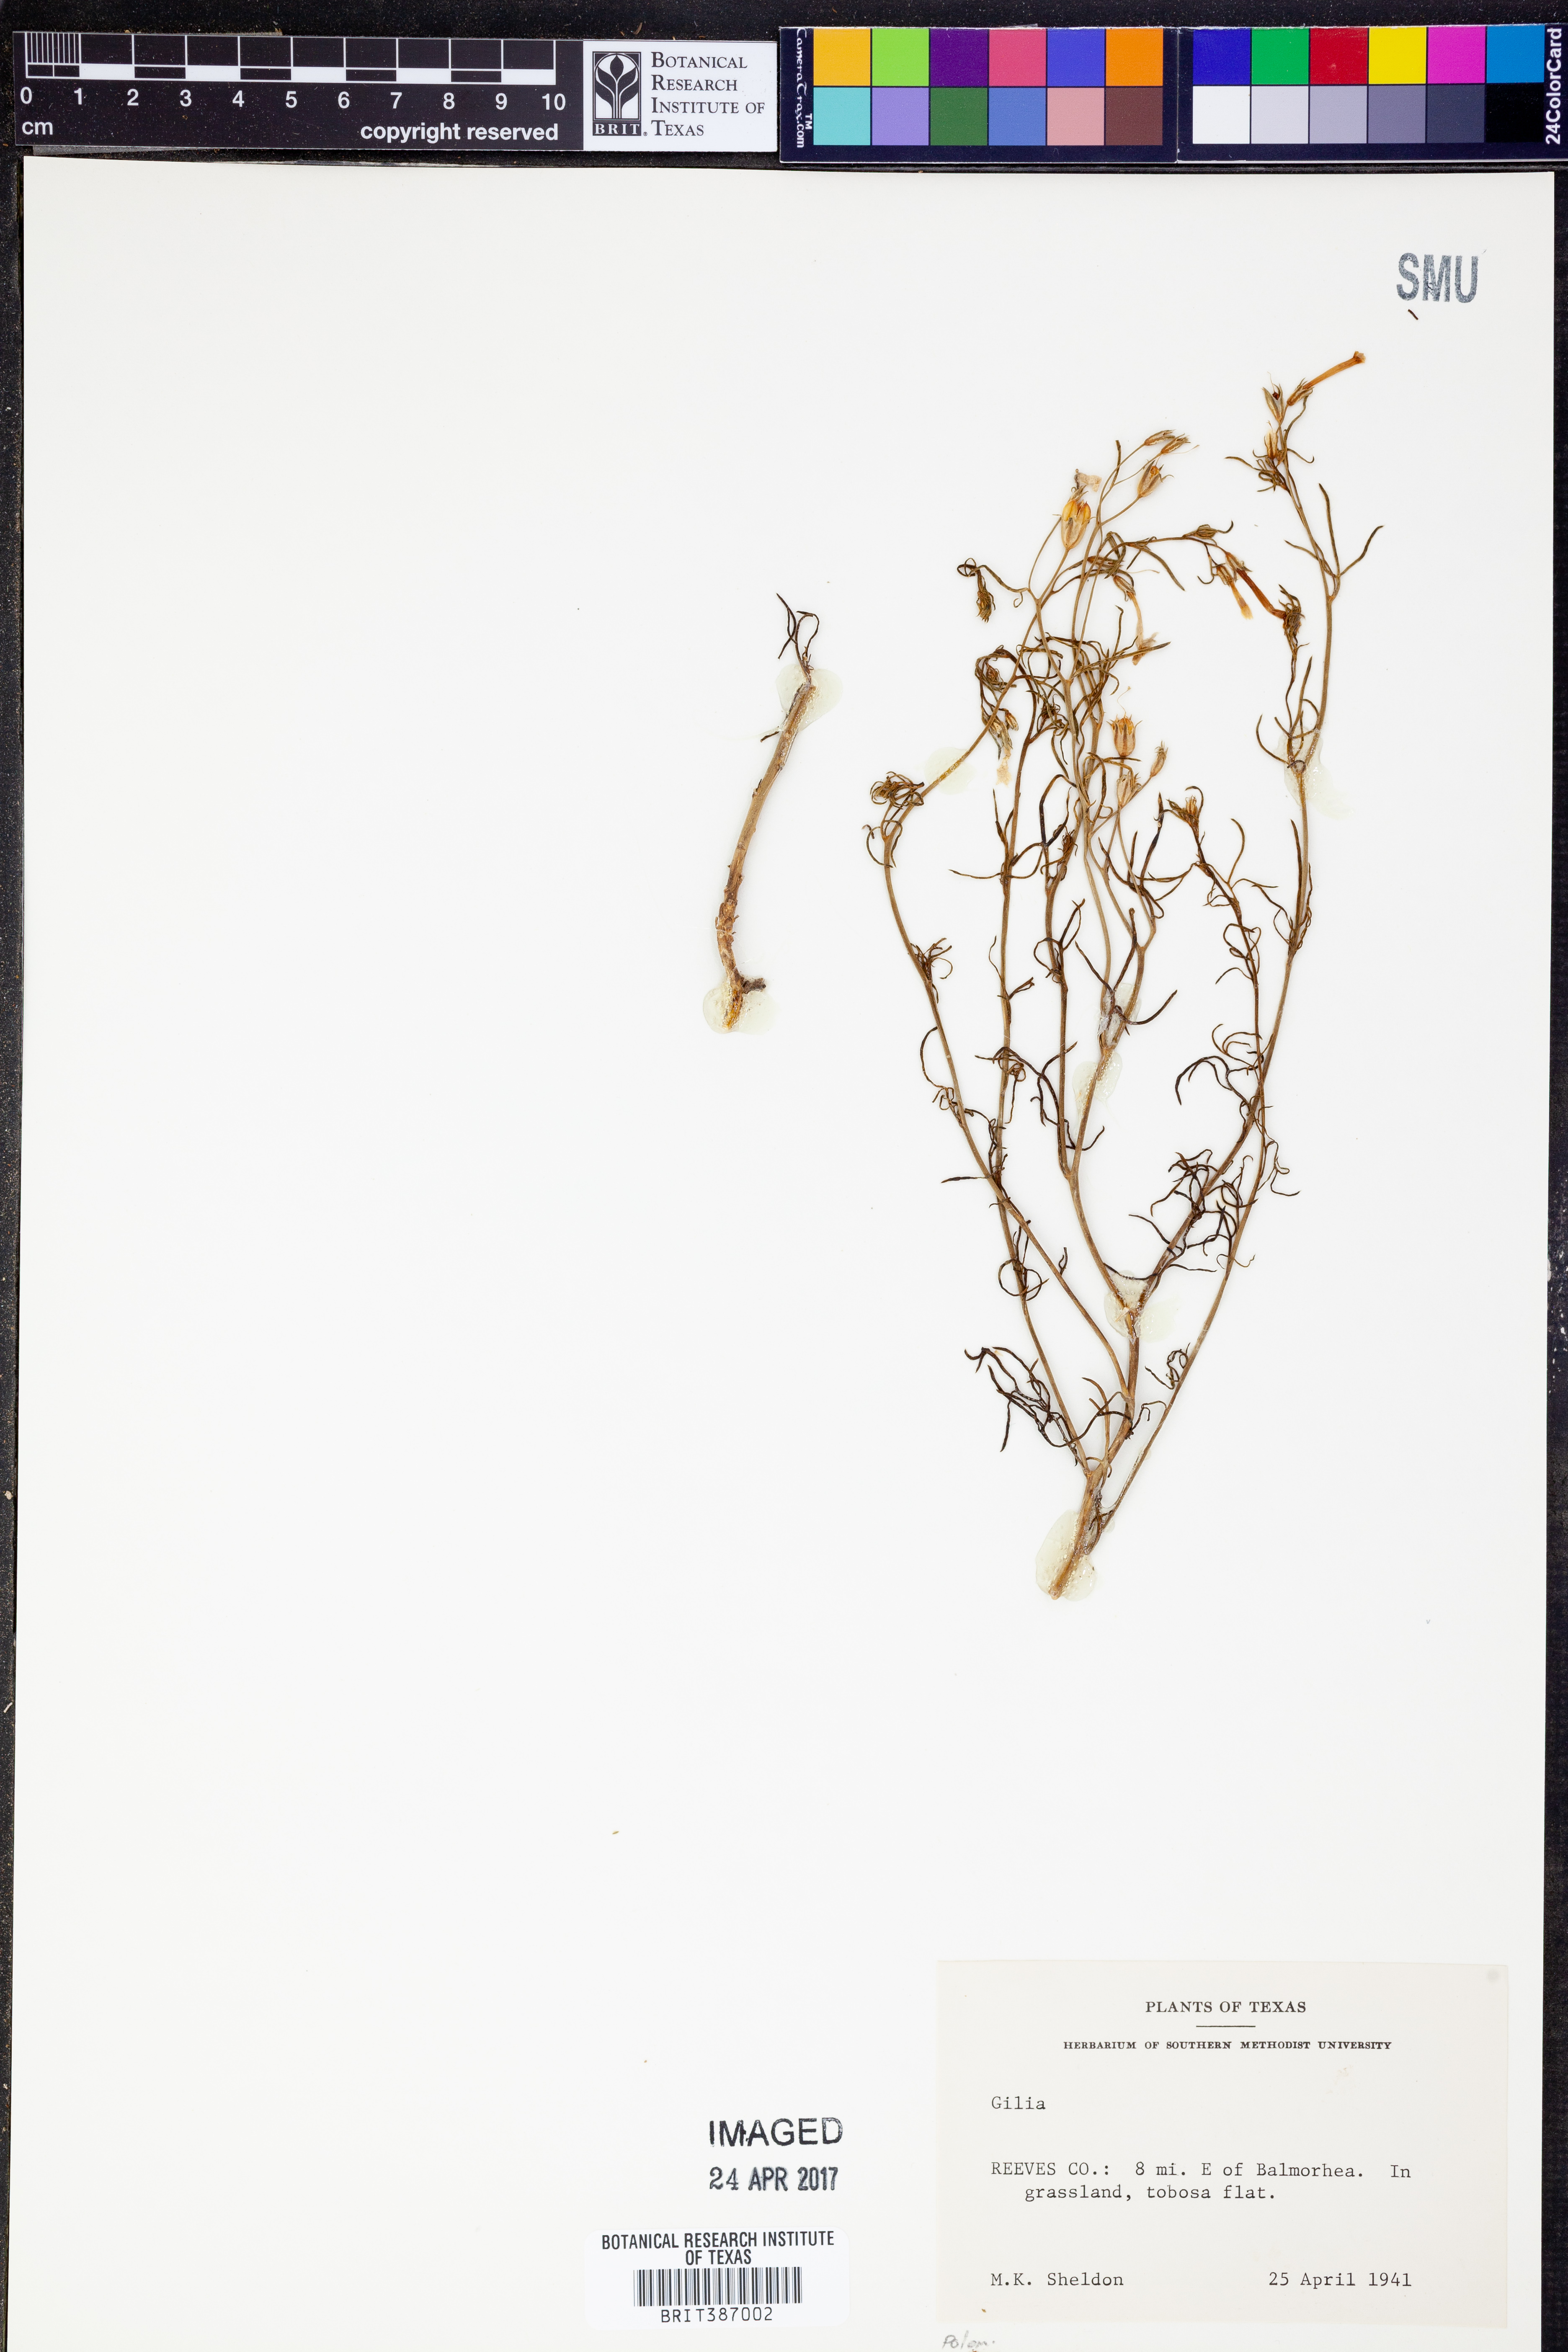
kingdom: Plantae
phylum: Tracheophyta
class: Magnoliopsida
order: Ericales
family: Polemoniaceae
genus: Gilia
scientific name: Gilia
